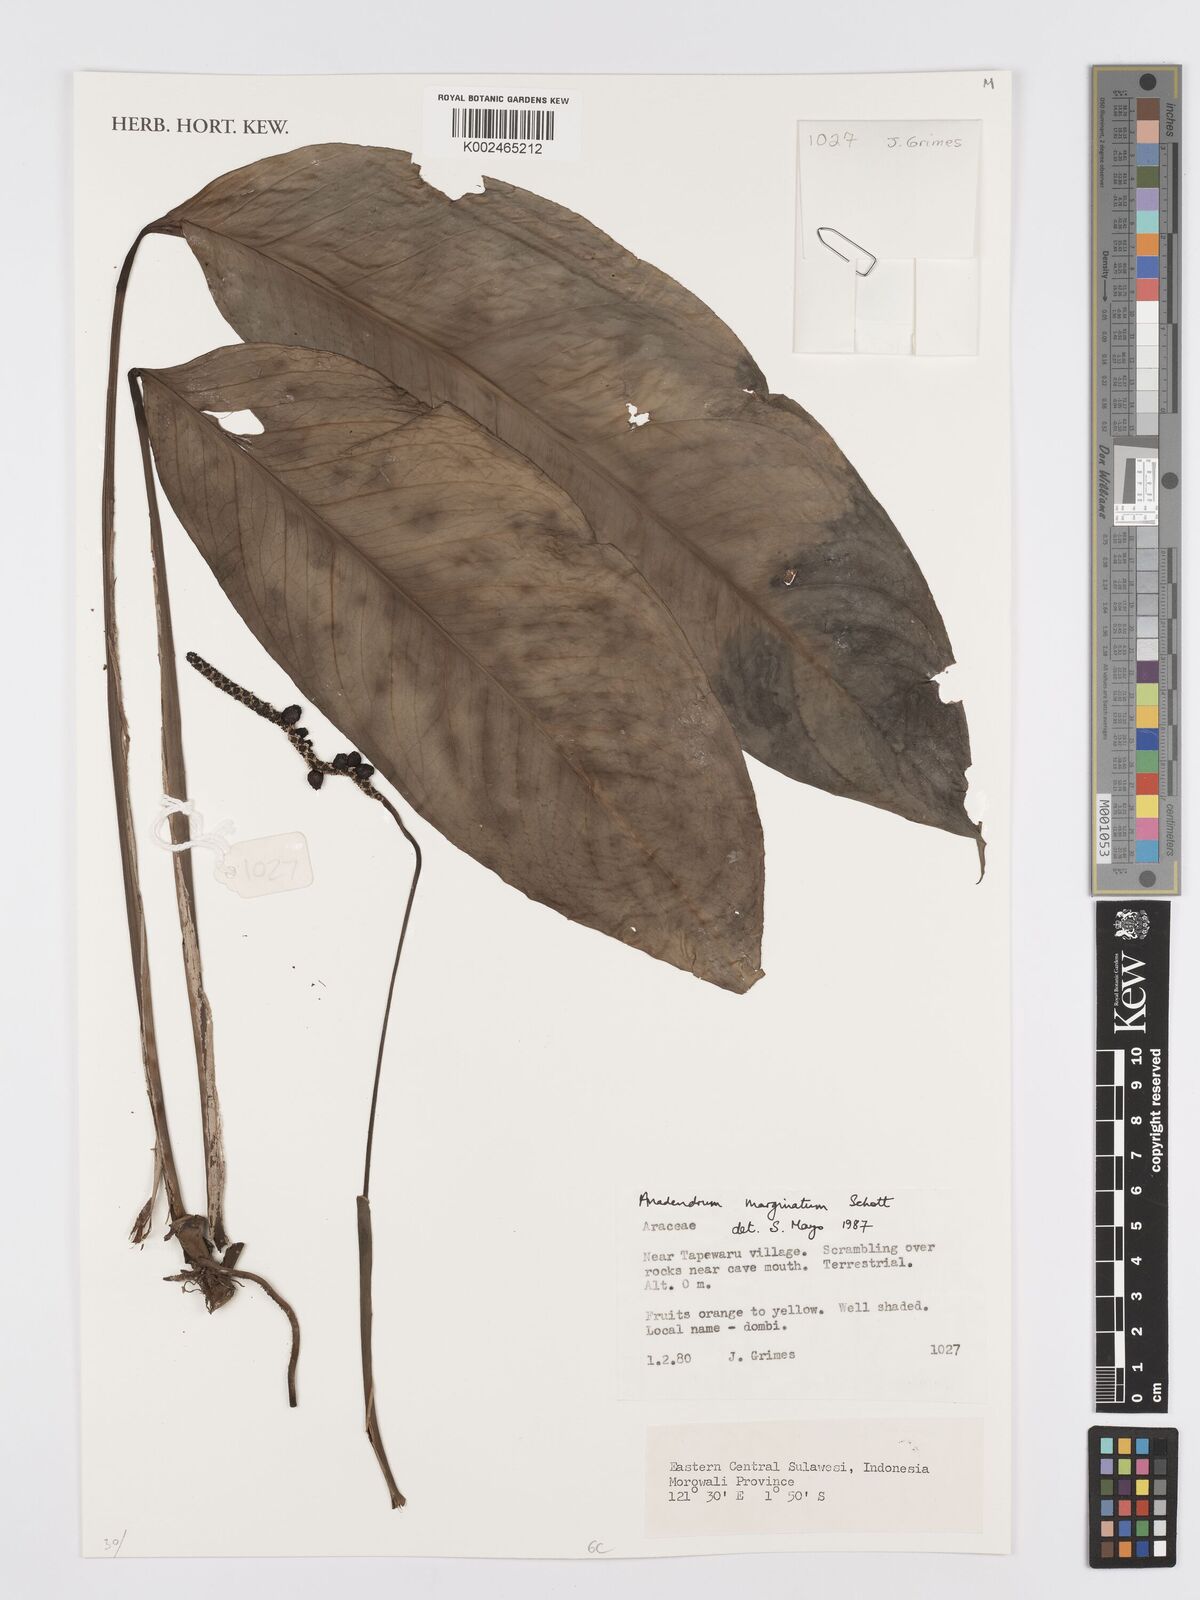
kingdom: Plantae
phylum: Tracheophyta
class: Liliopsida
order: Alismatales
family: Araceae
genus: Anadendrum
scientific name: Anadendrum marginatum
